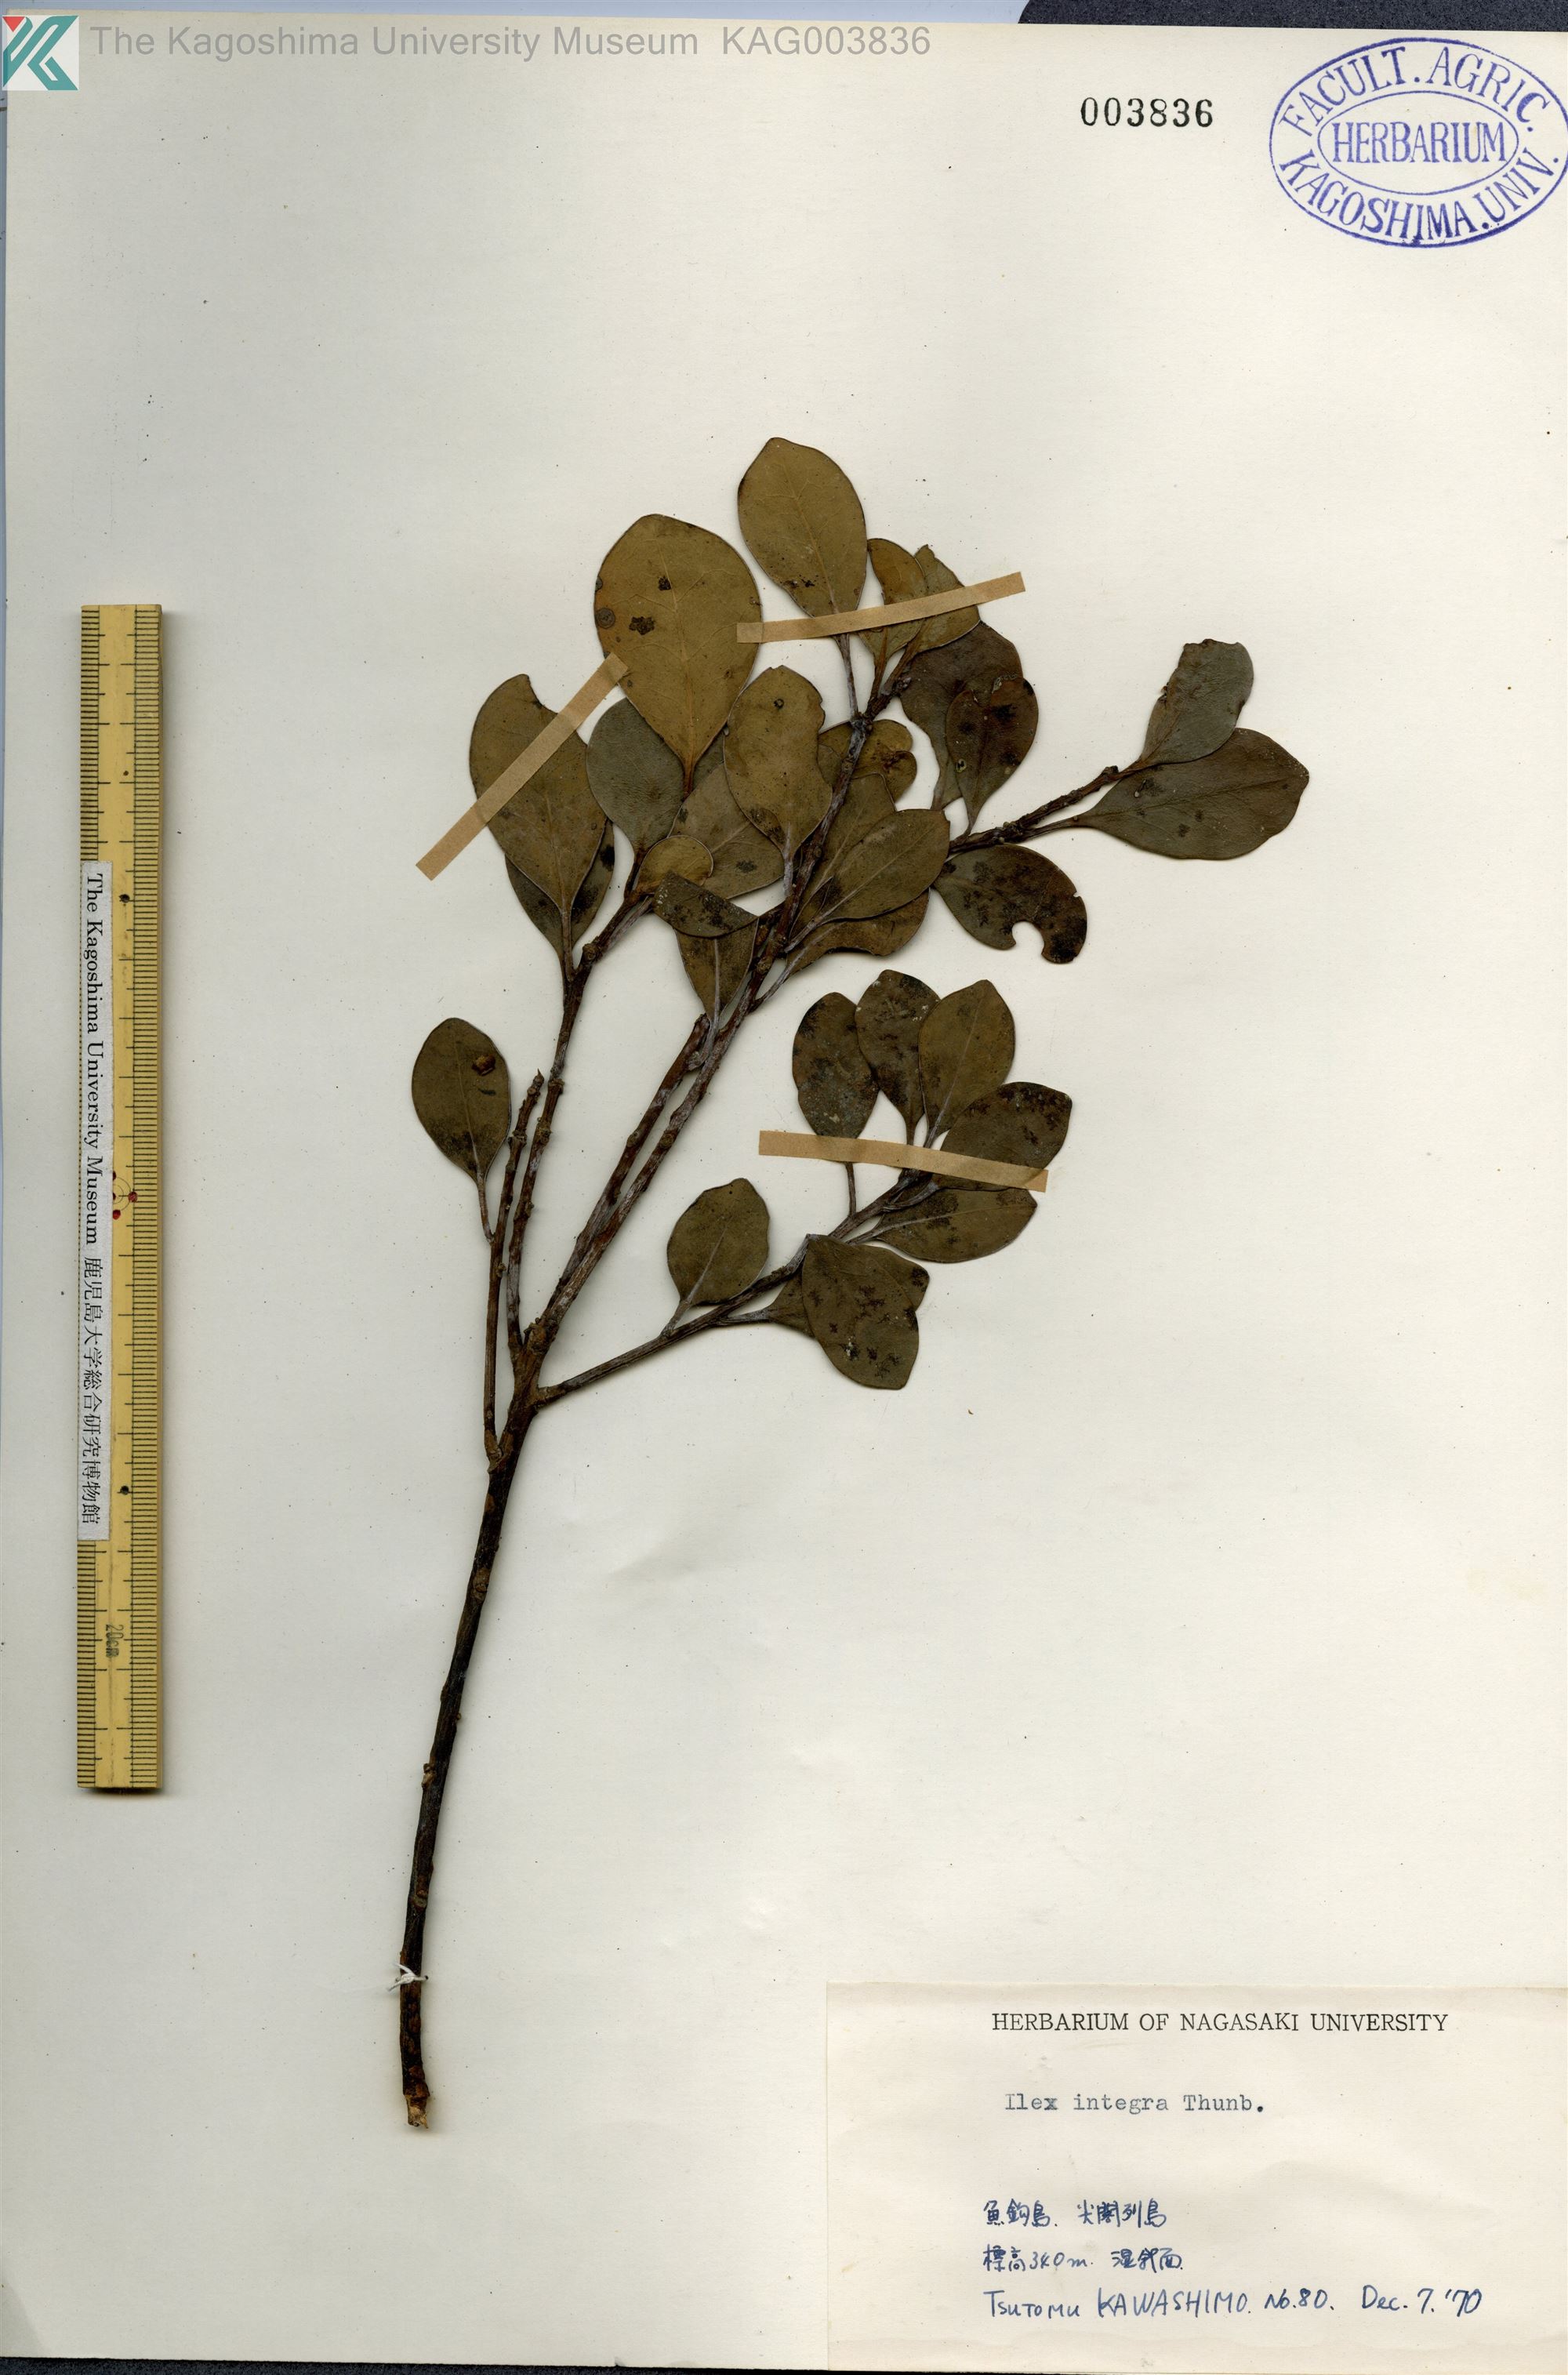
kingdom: Plantae
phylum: Tracheophyta
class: Magnoliopsida
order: Aquifoliales
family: Aquifoliaceae
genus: Ilex
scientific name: Ilex integra
